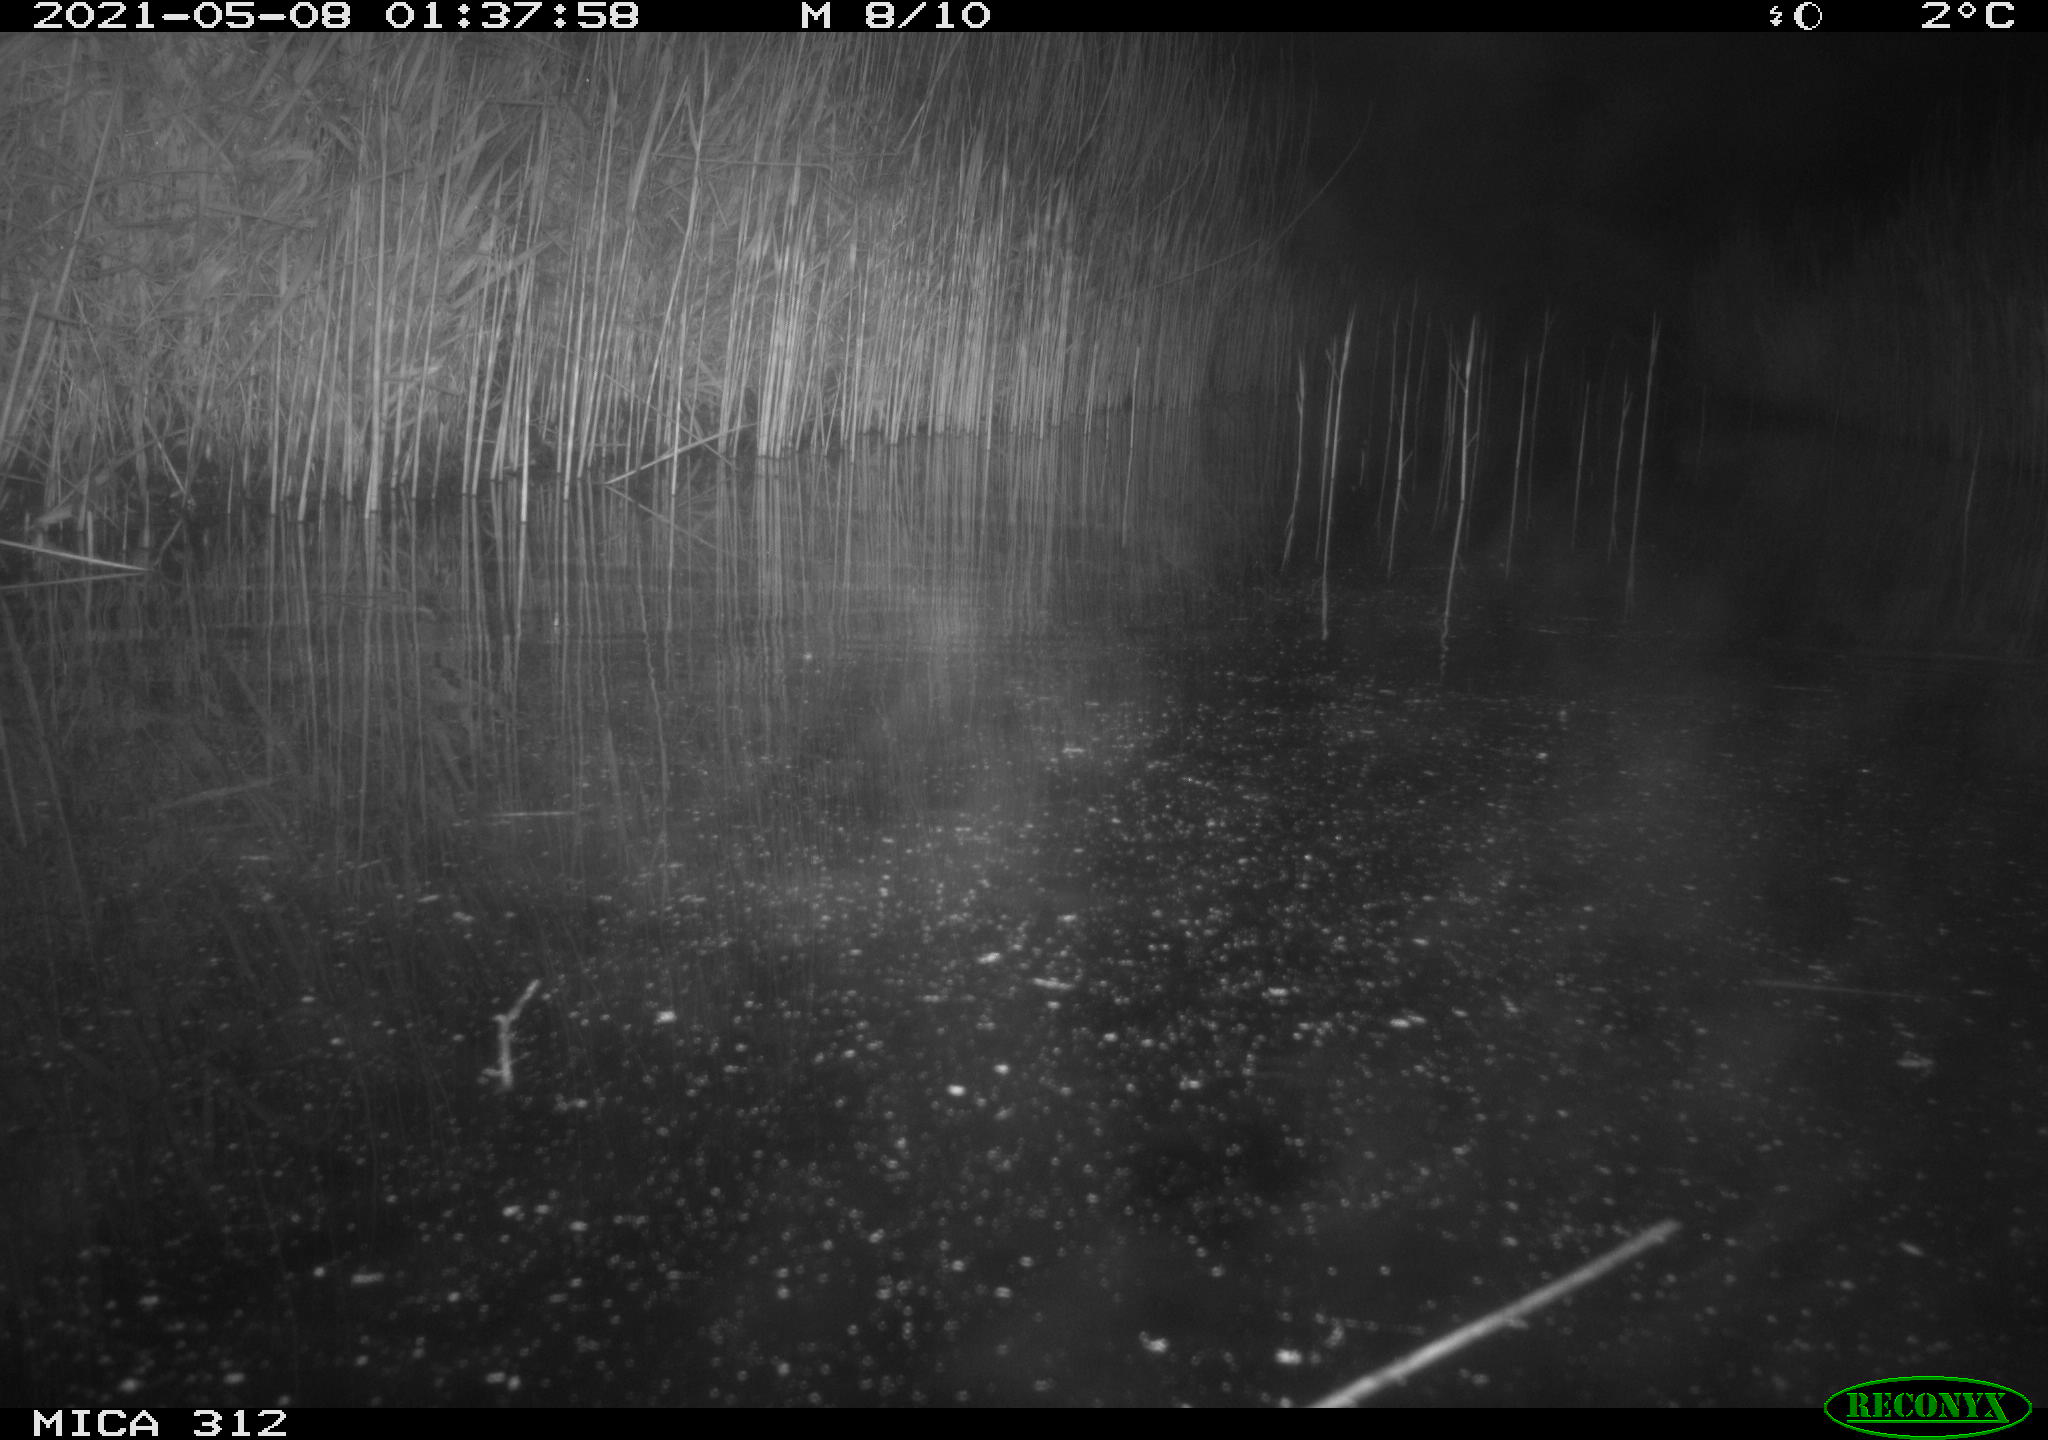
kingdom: Animalia
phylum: Chordata
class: Mammalia
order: Rodentia
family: Muridae
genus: Rattus
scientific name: Rattus norvegicus
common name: Brown rat
